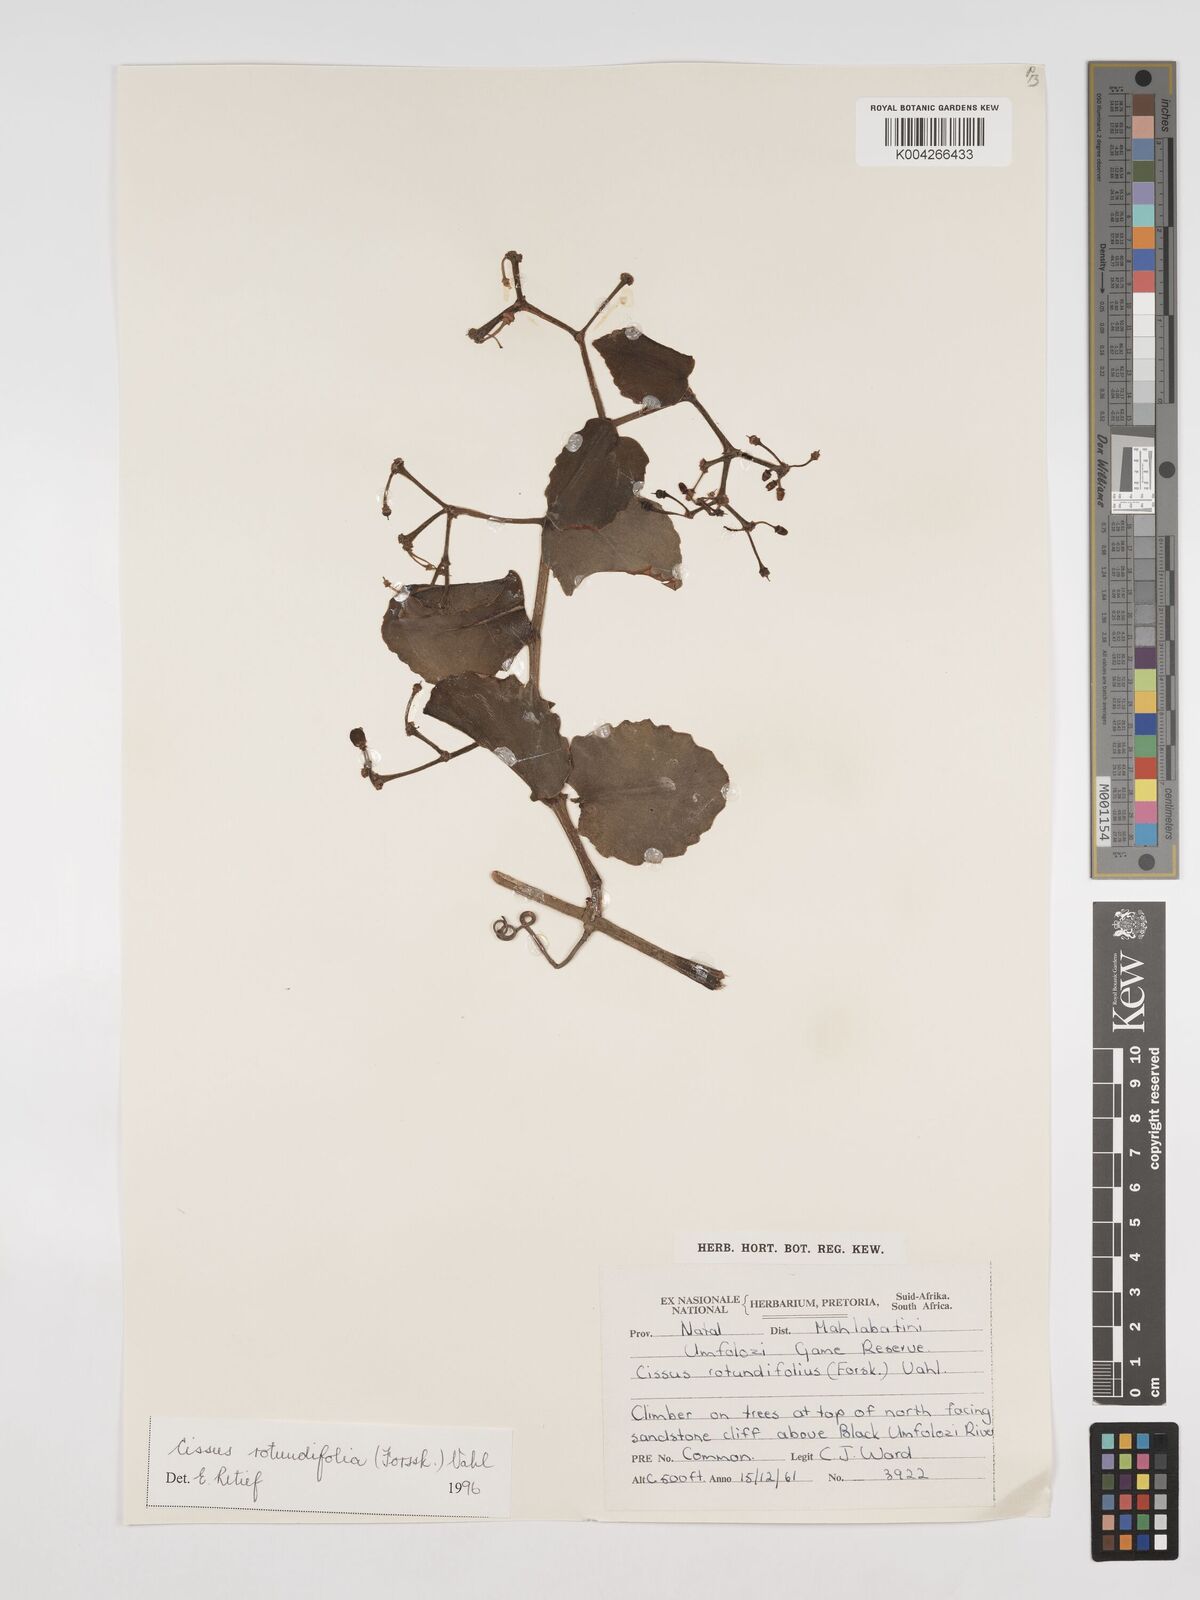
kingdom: Plantae
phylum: Tracheophyta
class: Magnoliopsida
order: Vitales
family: Vitaceae
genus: Cissus
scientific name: Cissus
